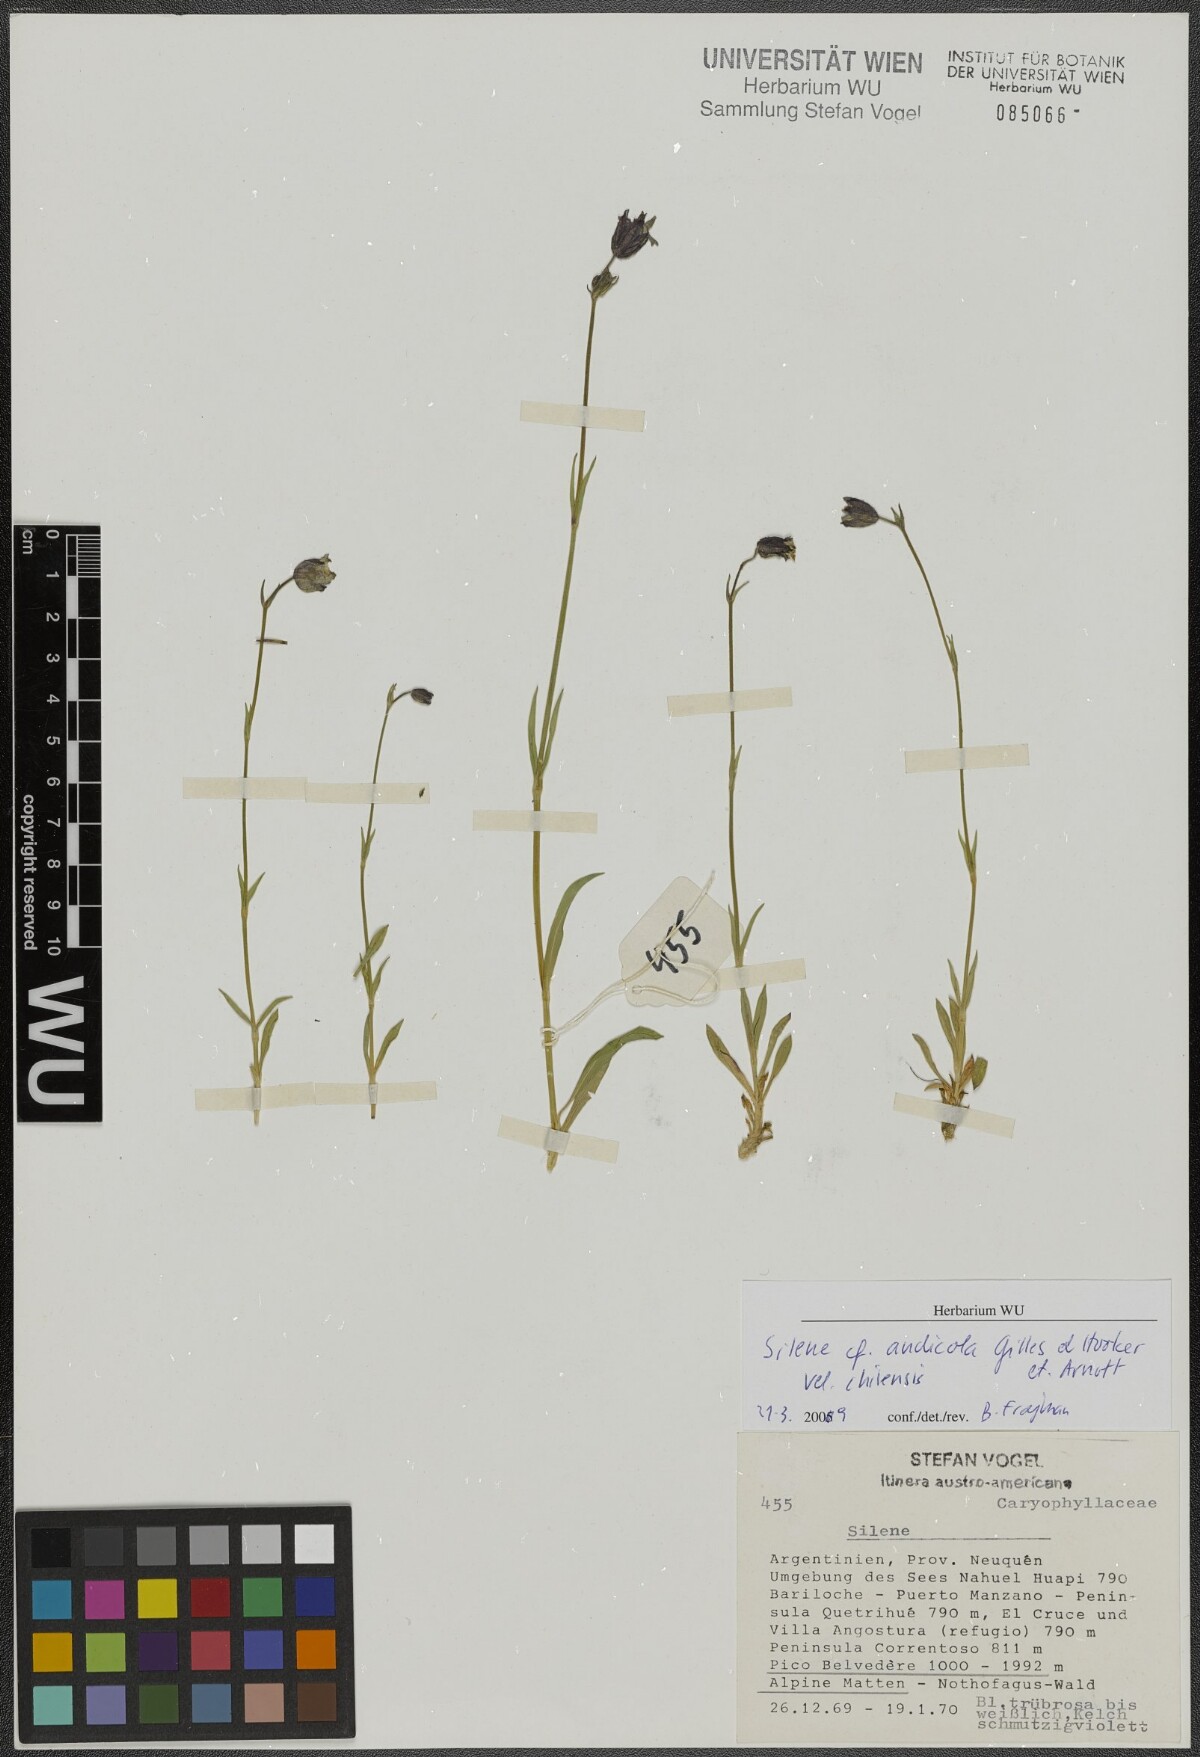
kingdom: Plantae
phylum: Tracheophyta
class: Magnoliopsida
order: Caryophyllales
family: Caryophyllaceae
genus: Silene
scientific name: Silene andicola
